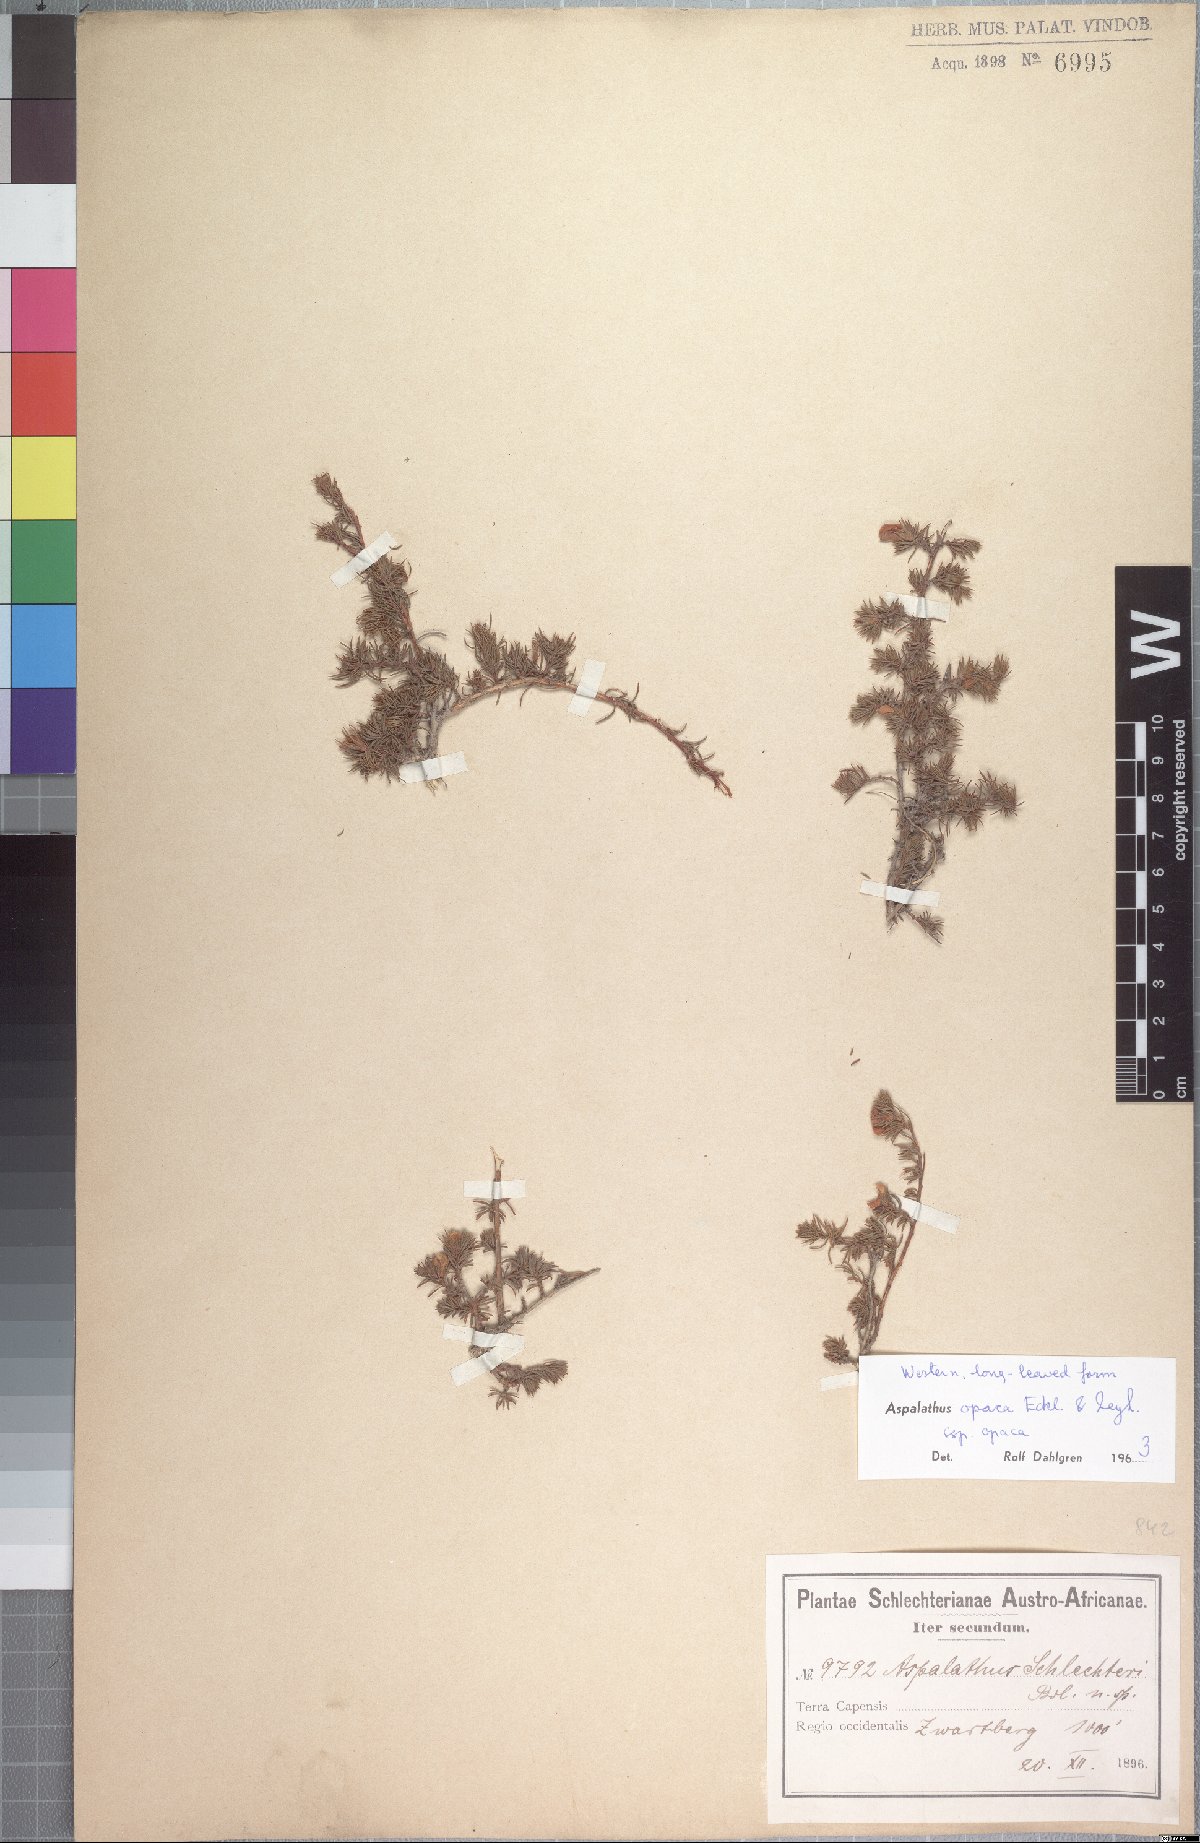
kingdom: Plantae
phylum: Tracheophyta
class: Magnoliopsida
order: Fabales
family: Fabaceae
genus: Aspalathus
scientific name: Aspalathus opaca
